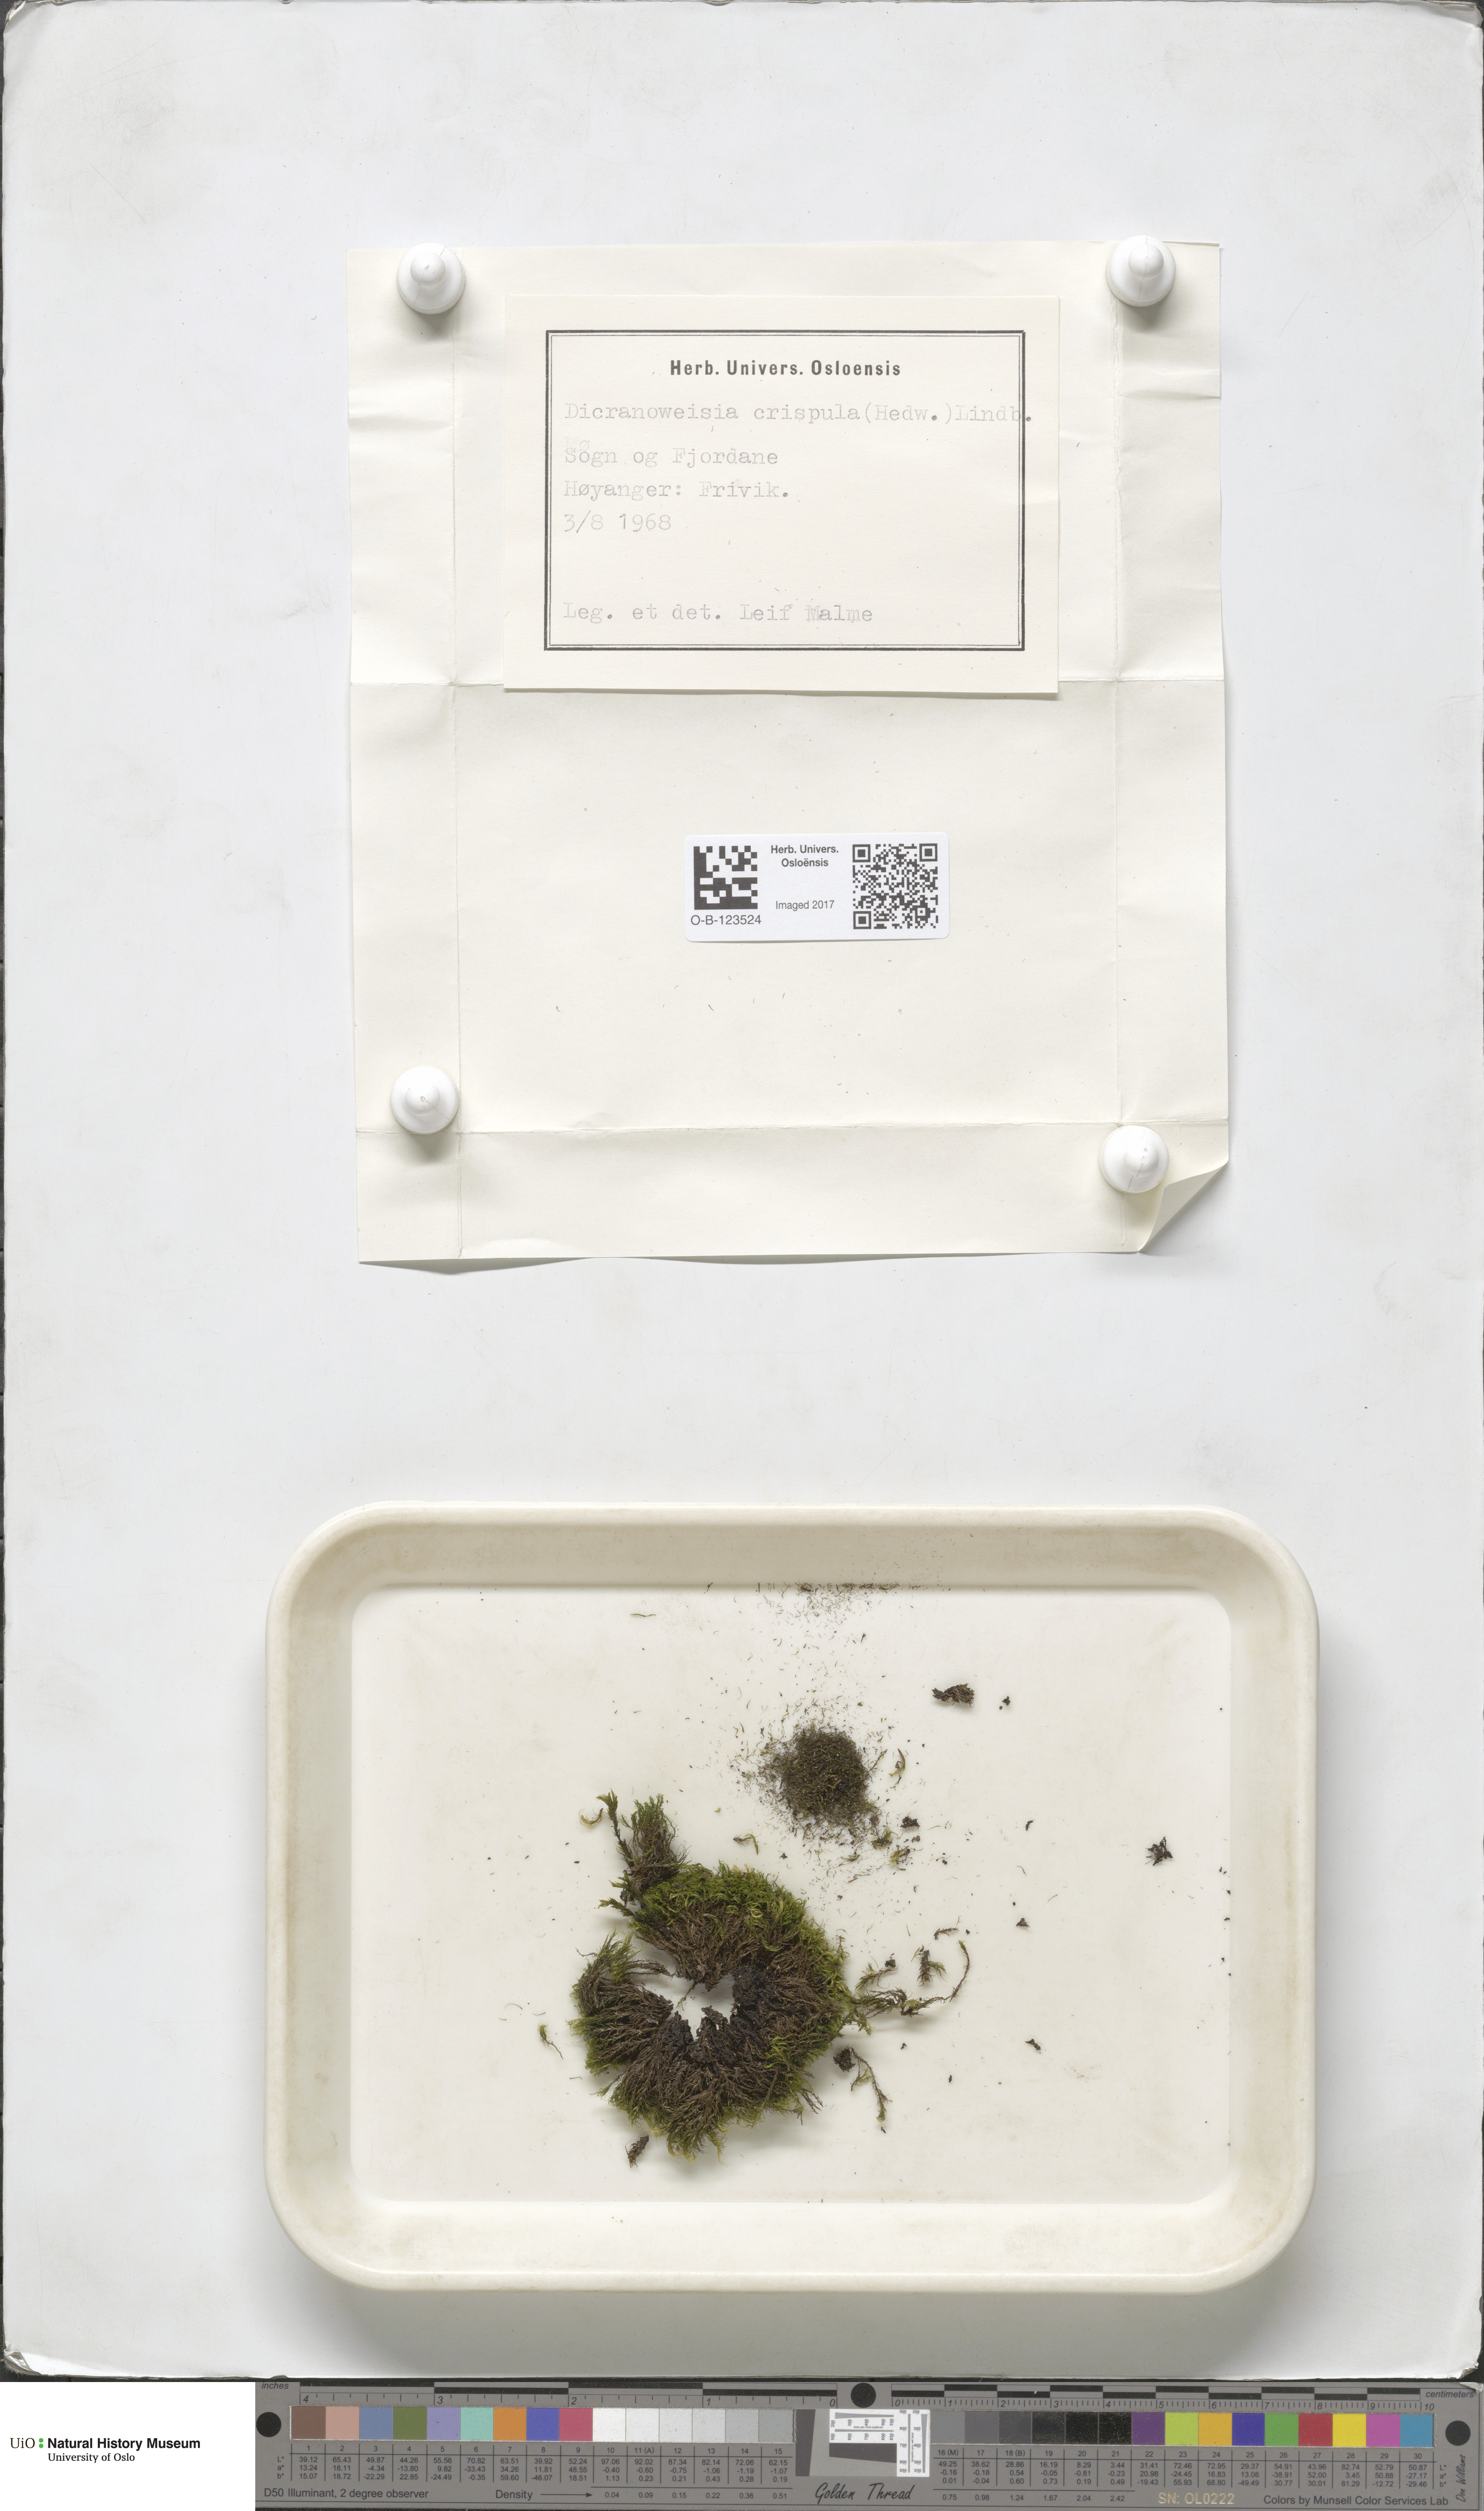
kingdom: Plantae
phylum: Bryophyta
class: Bryopsida
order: Scouleriales
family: Hymenolomataceae
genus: Hymenoloma
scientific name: Hymenoloma crispulum
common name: Mountain pincushion
